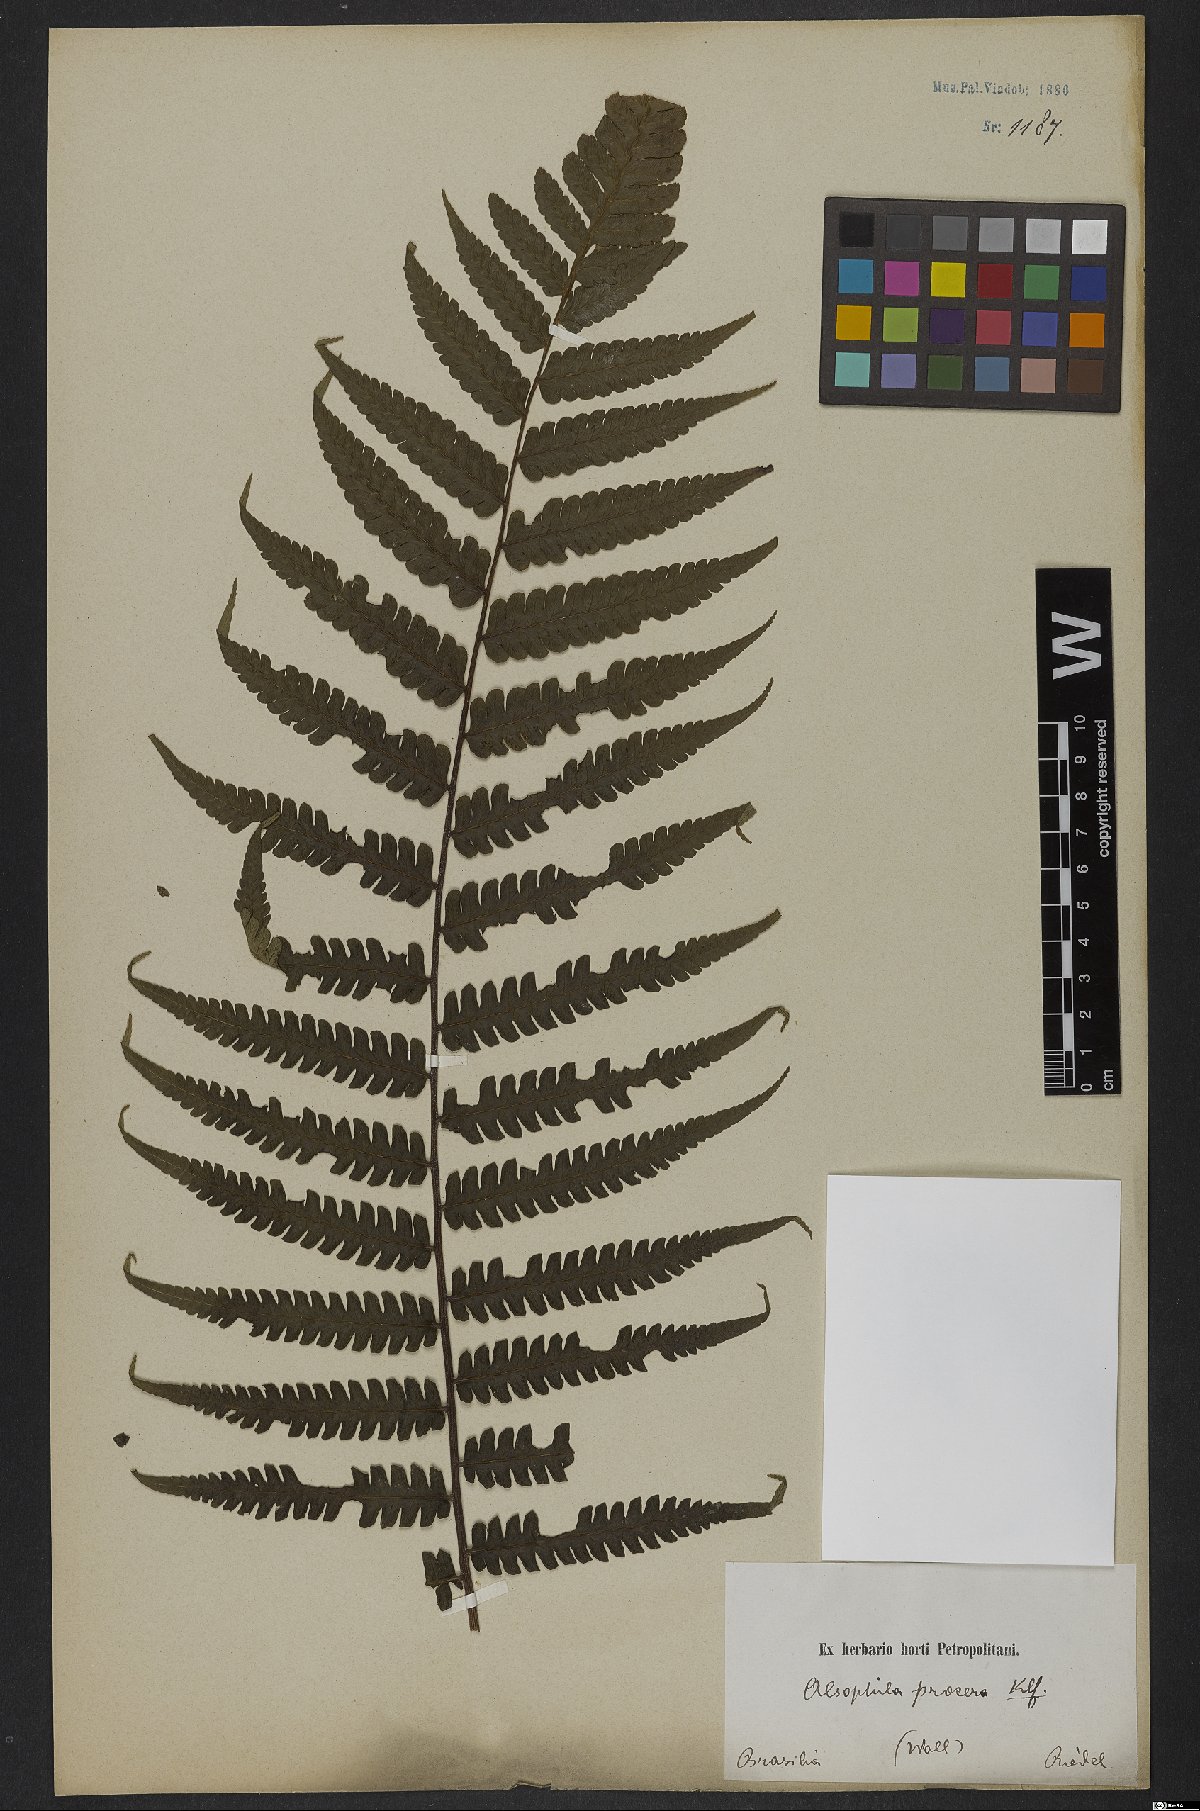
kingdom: Plantae
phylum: Tracheophyta
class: Polypodiopsida
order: Cyatheales
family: Cyatheaceae
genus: Cyathea
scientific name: Cyathea pungens
